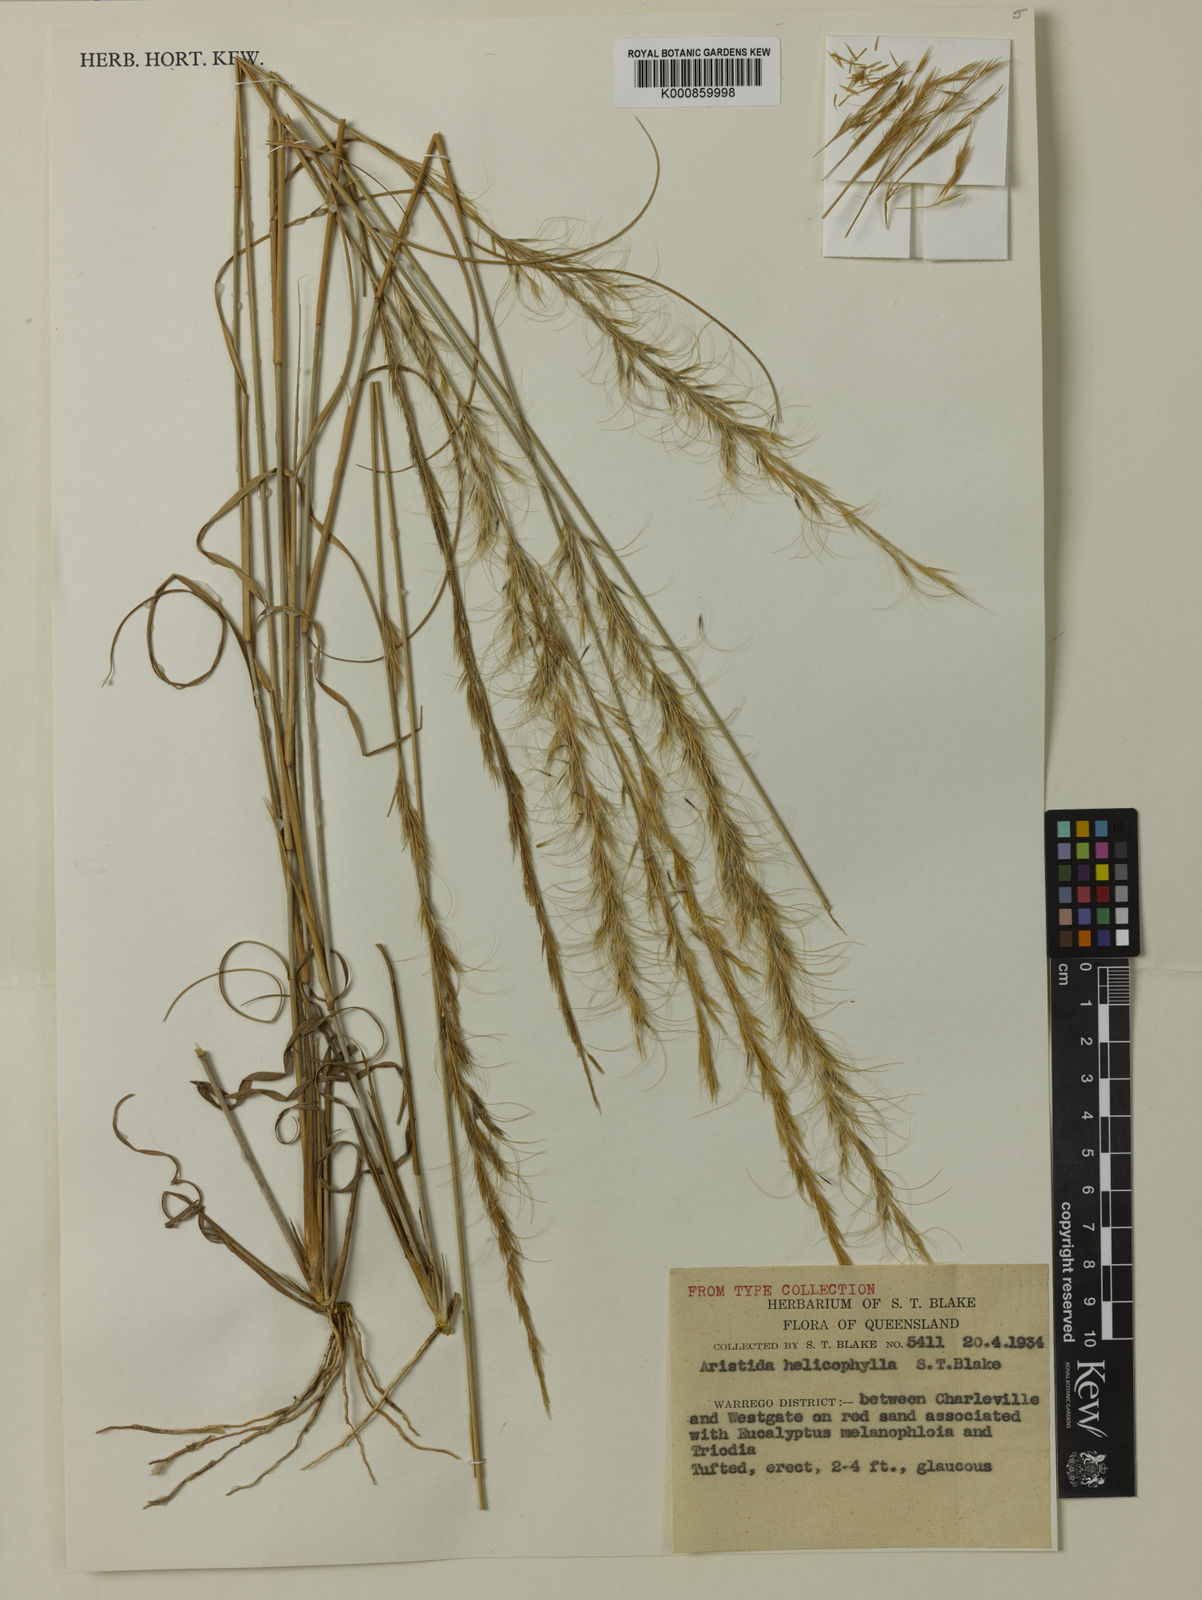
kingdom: Plantae
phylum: Tracheophyta
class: Liliopsida
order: Poales
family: Poaceae
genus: Aristida
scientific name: Aristida helicophylla
